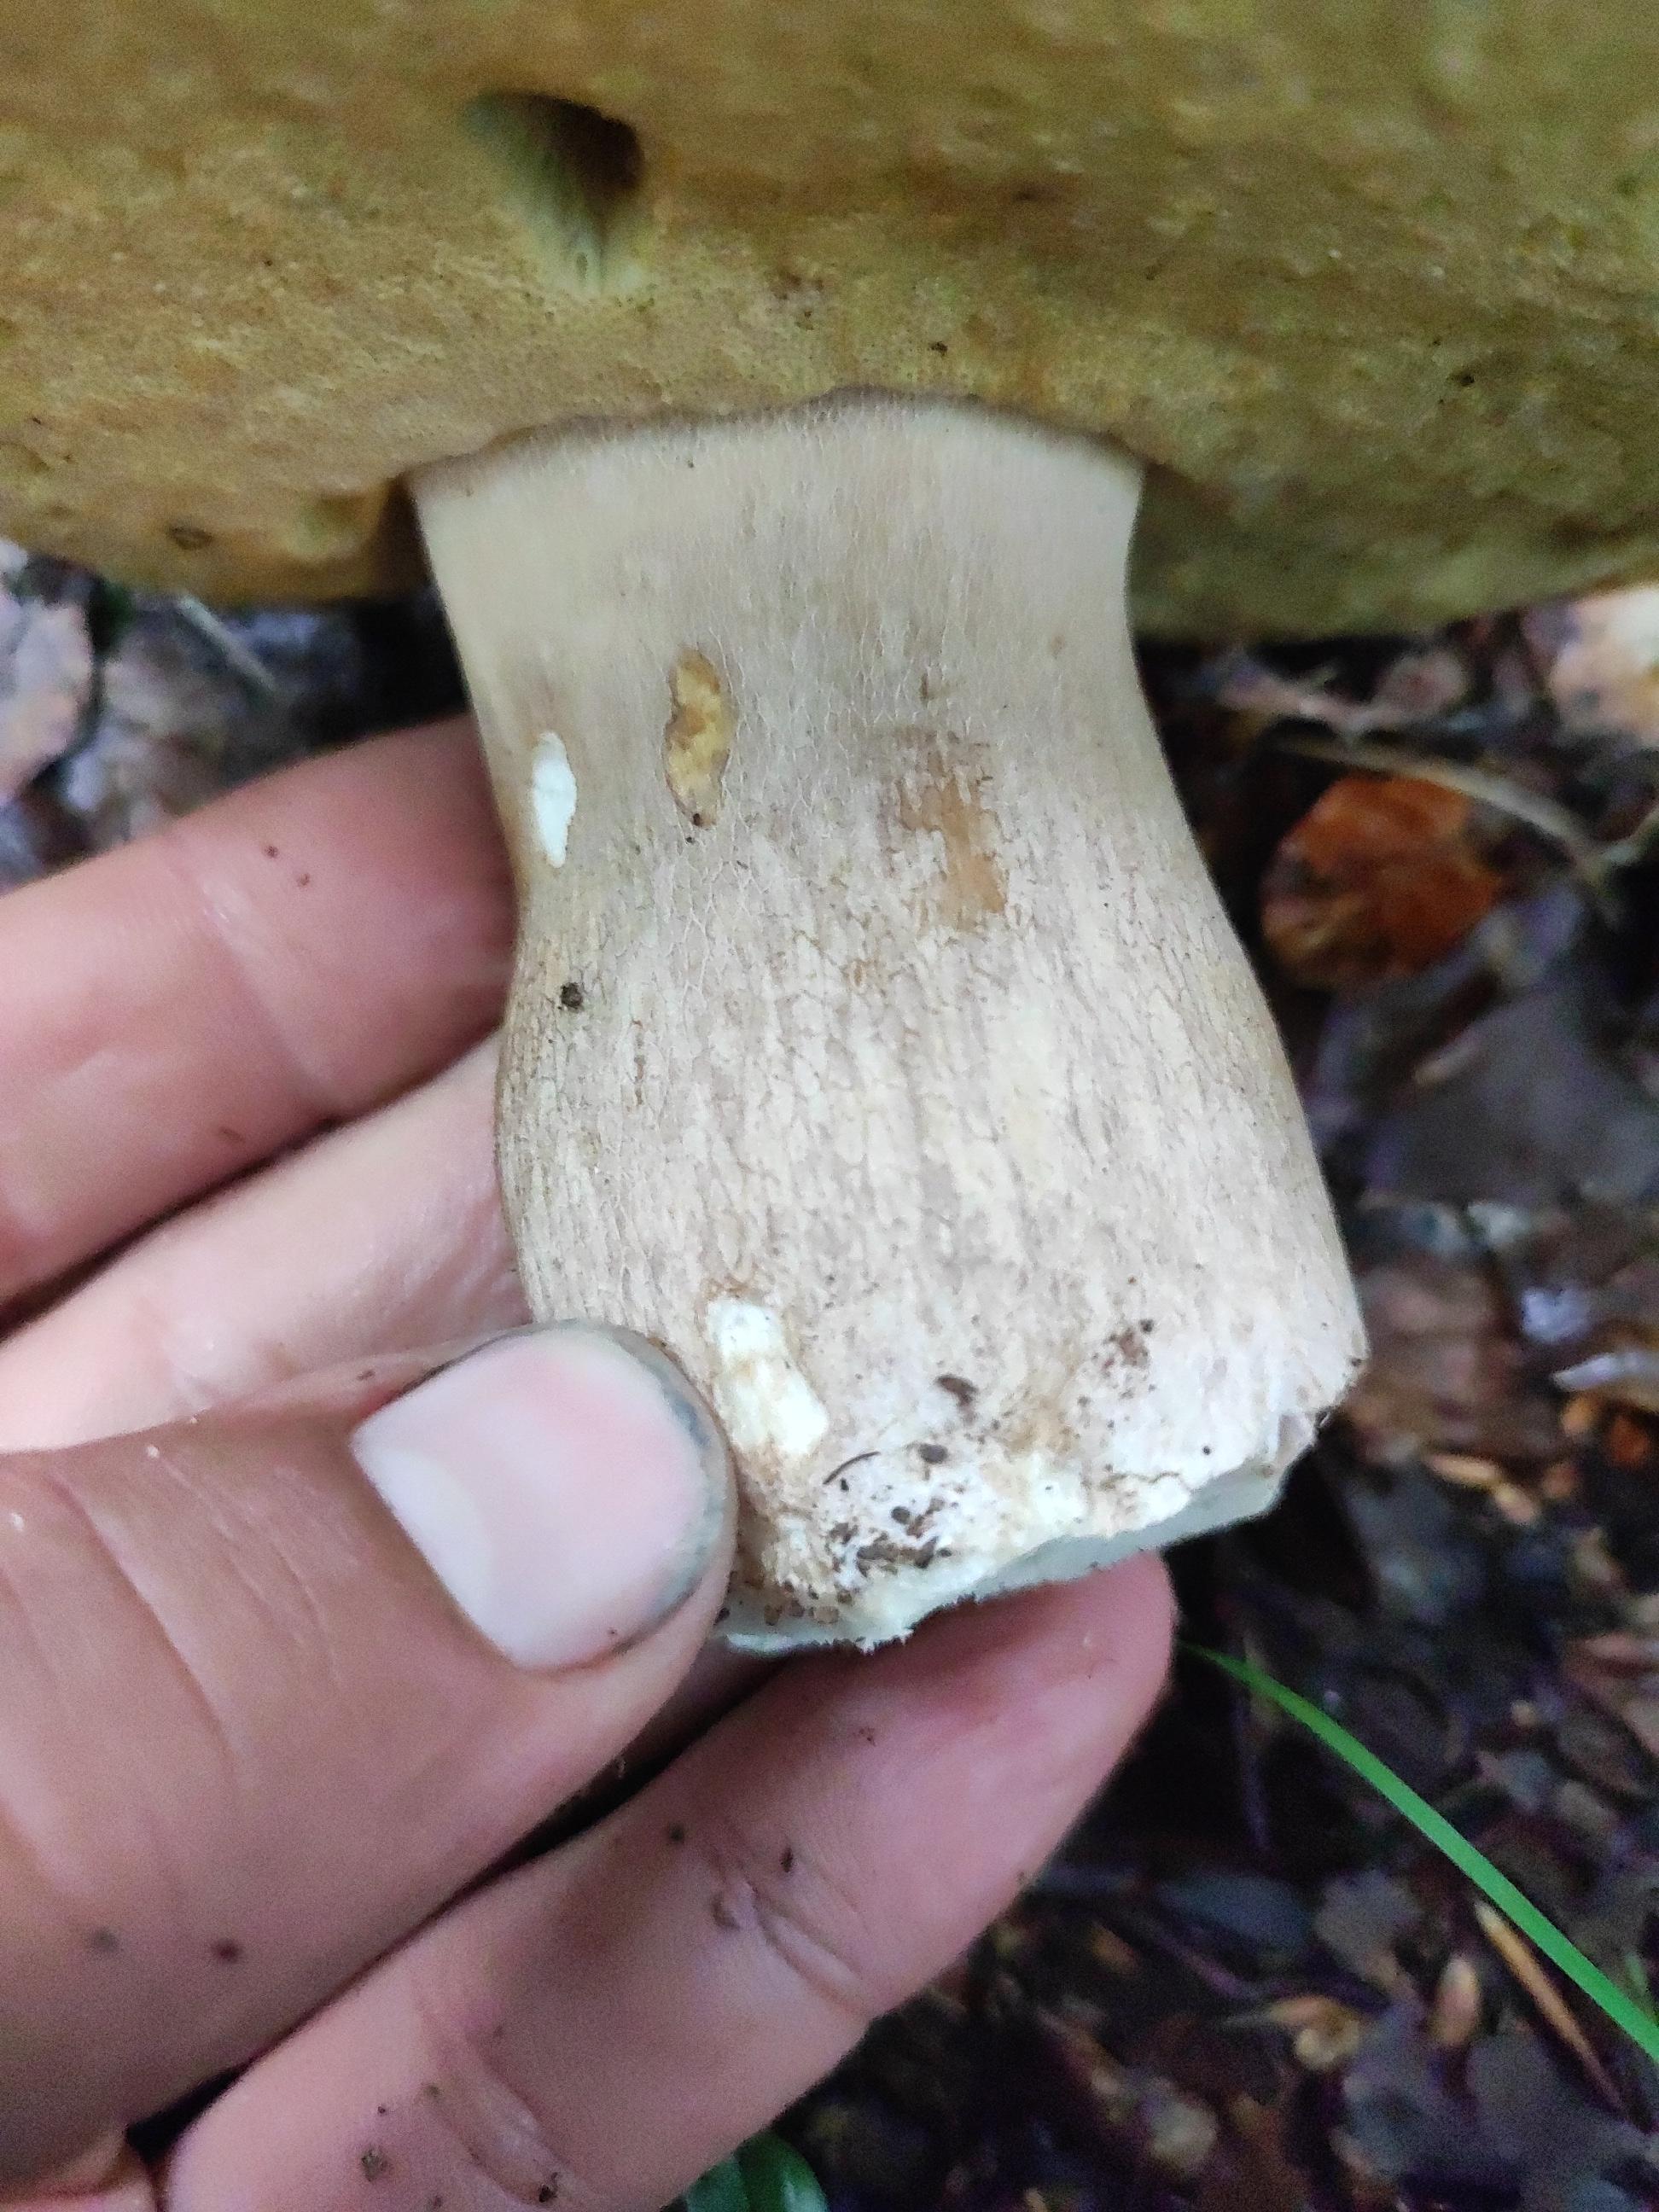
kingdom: Fungi
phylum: Basidiomycota
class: Agaricomycetes
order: Boletales
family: Boletaceae
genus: Boletus
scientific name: Boletus edulis
